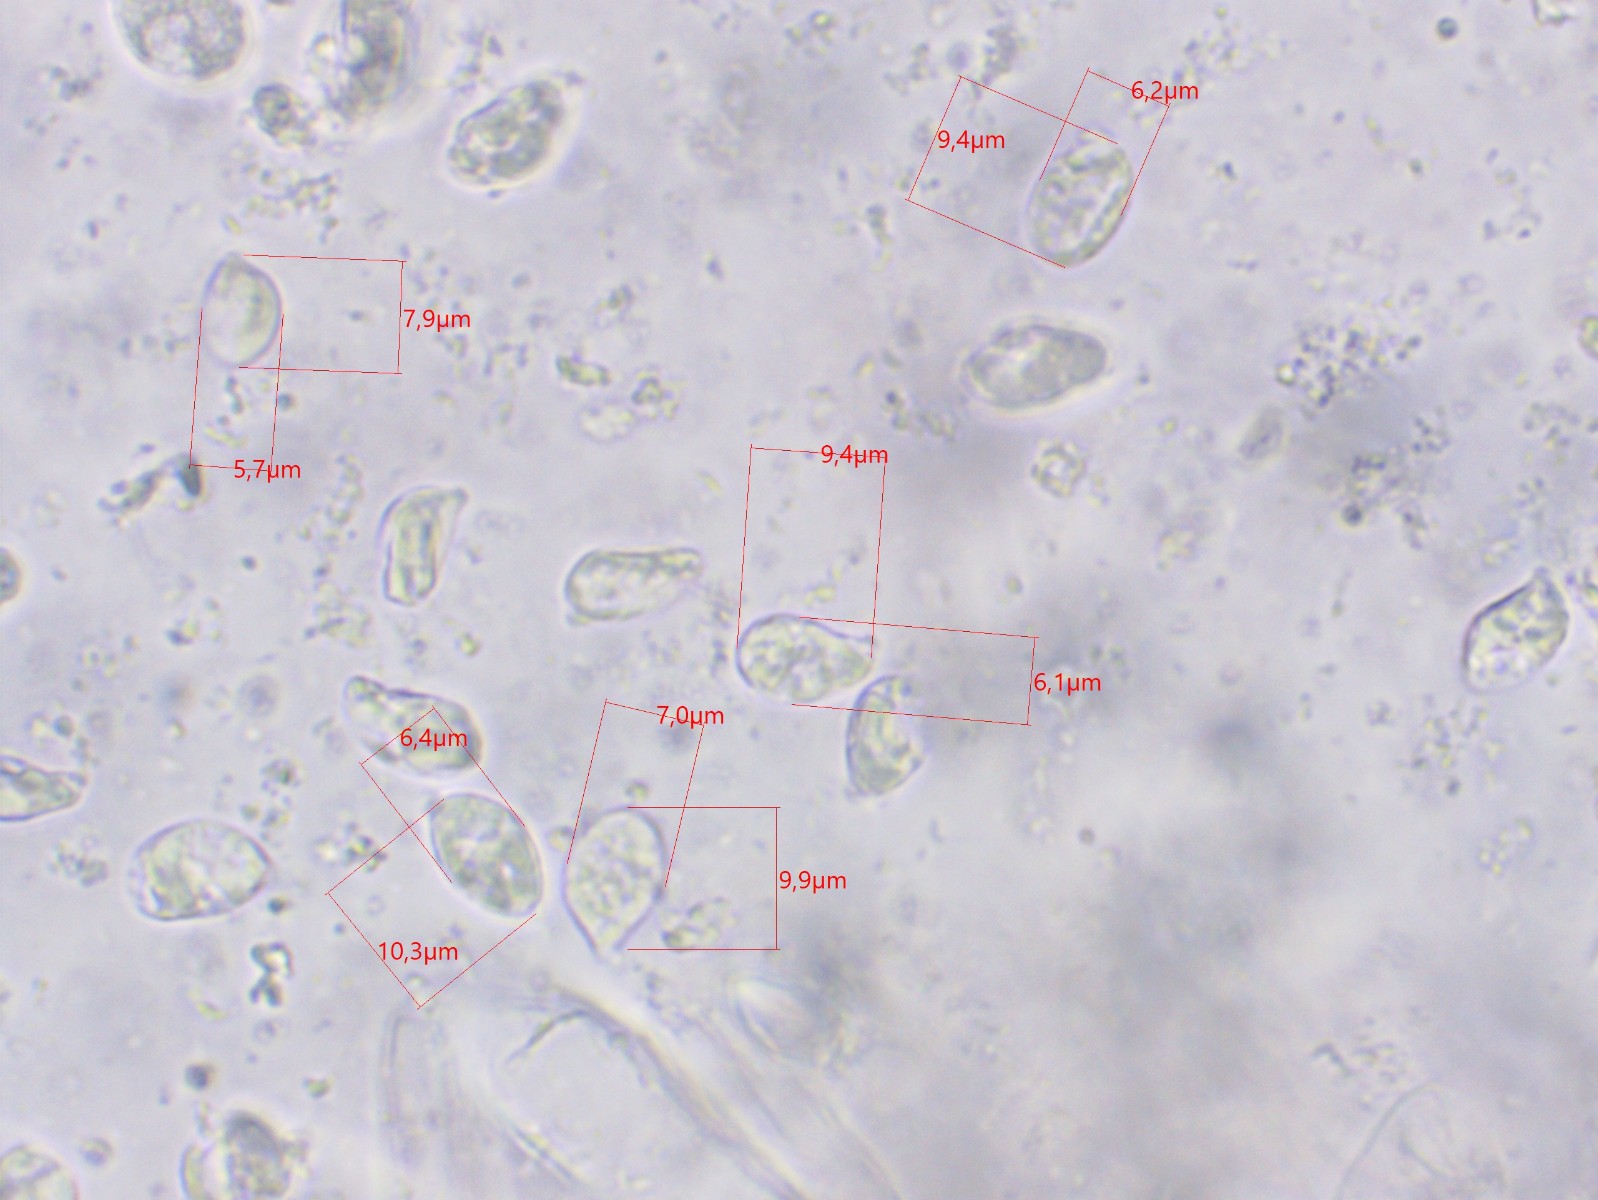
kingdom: Fungi
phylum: Basidiomycota
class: Agaricomycetes
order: Gomphales
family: Clavariadelphaceae
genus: Clavariadelphus
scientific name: Clavariadelphus truncatus
